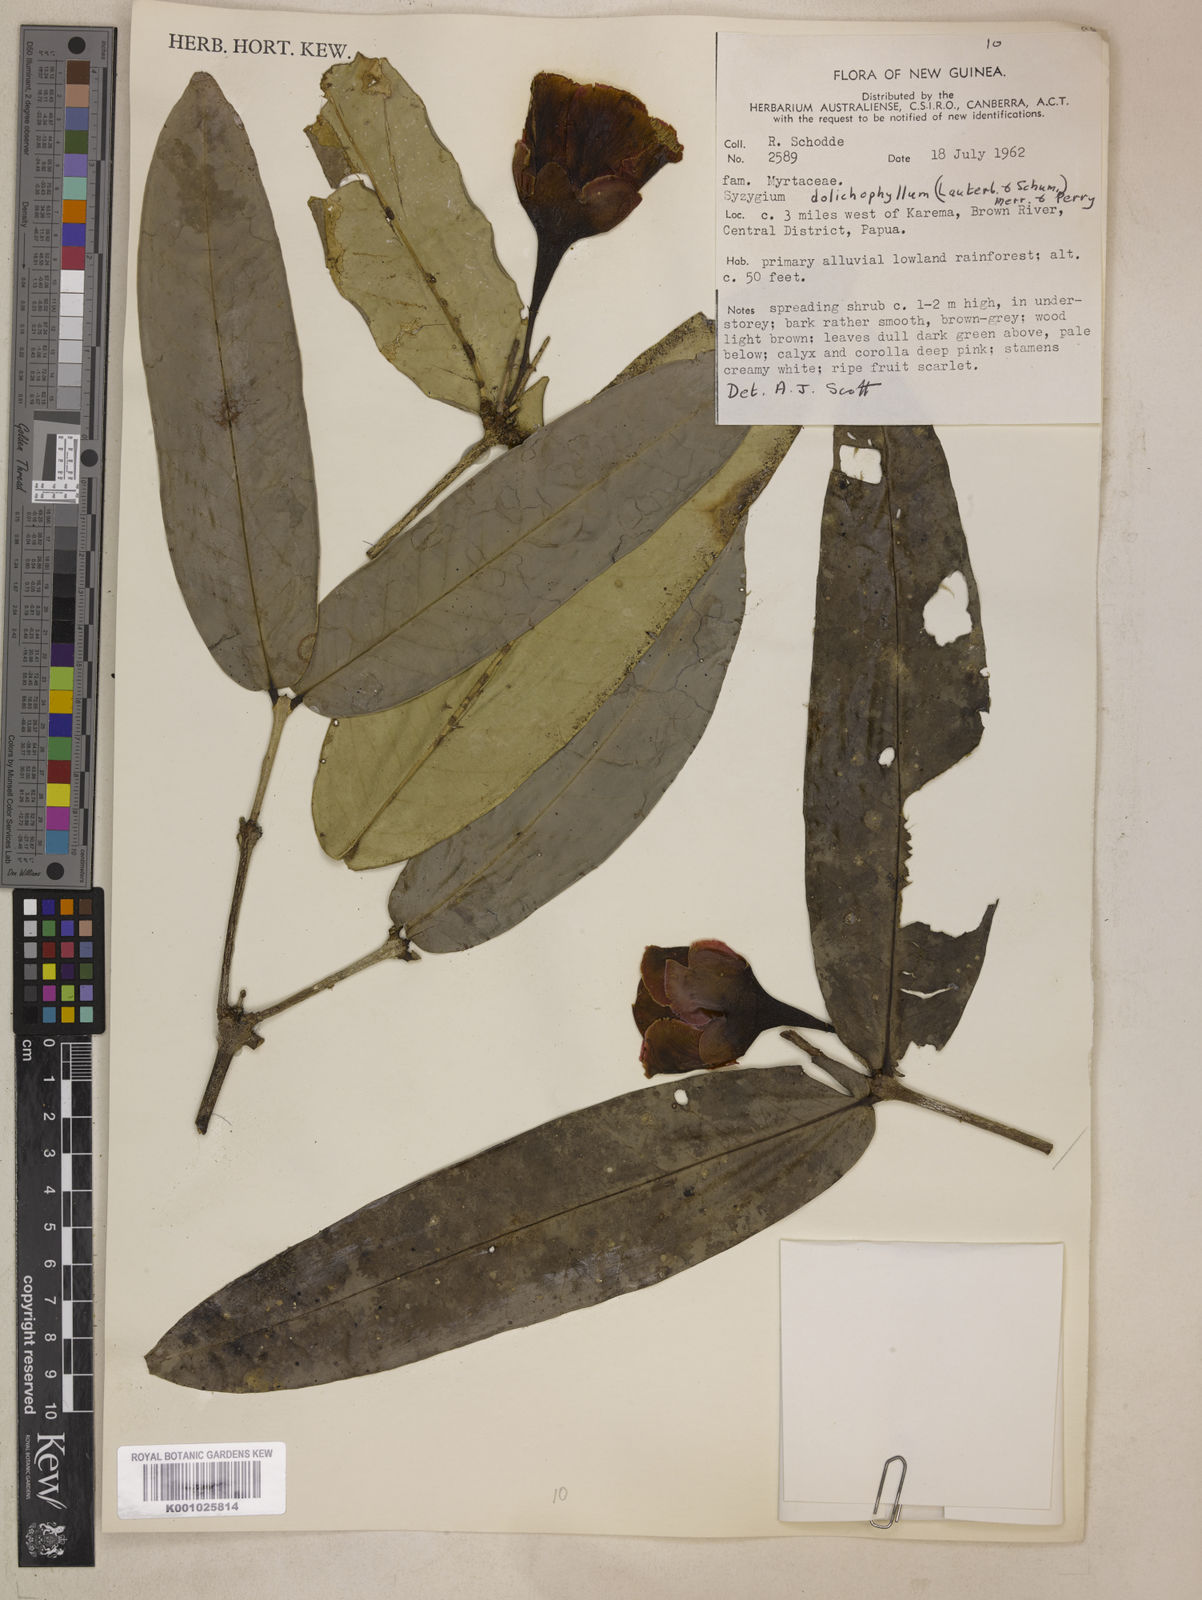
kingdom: Plantae
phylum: Tracheophyta
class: Magnoliopsida
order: Myrtales
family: Myrtaceae
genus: Syzygium
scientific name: Syzygium dolichophyllum
